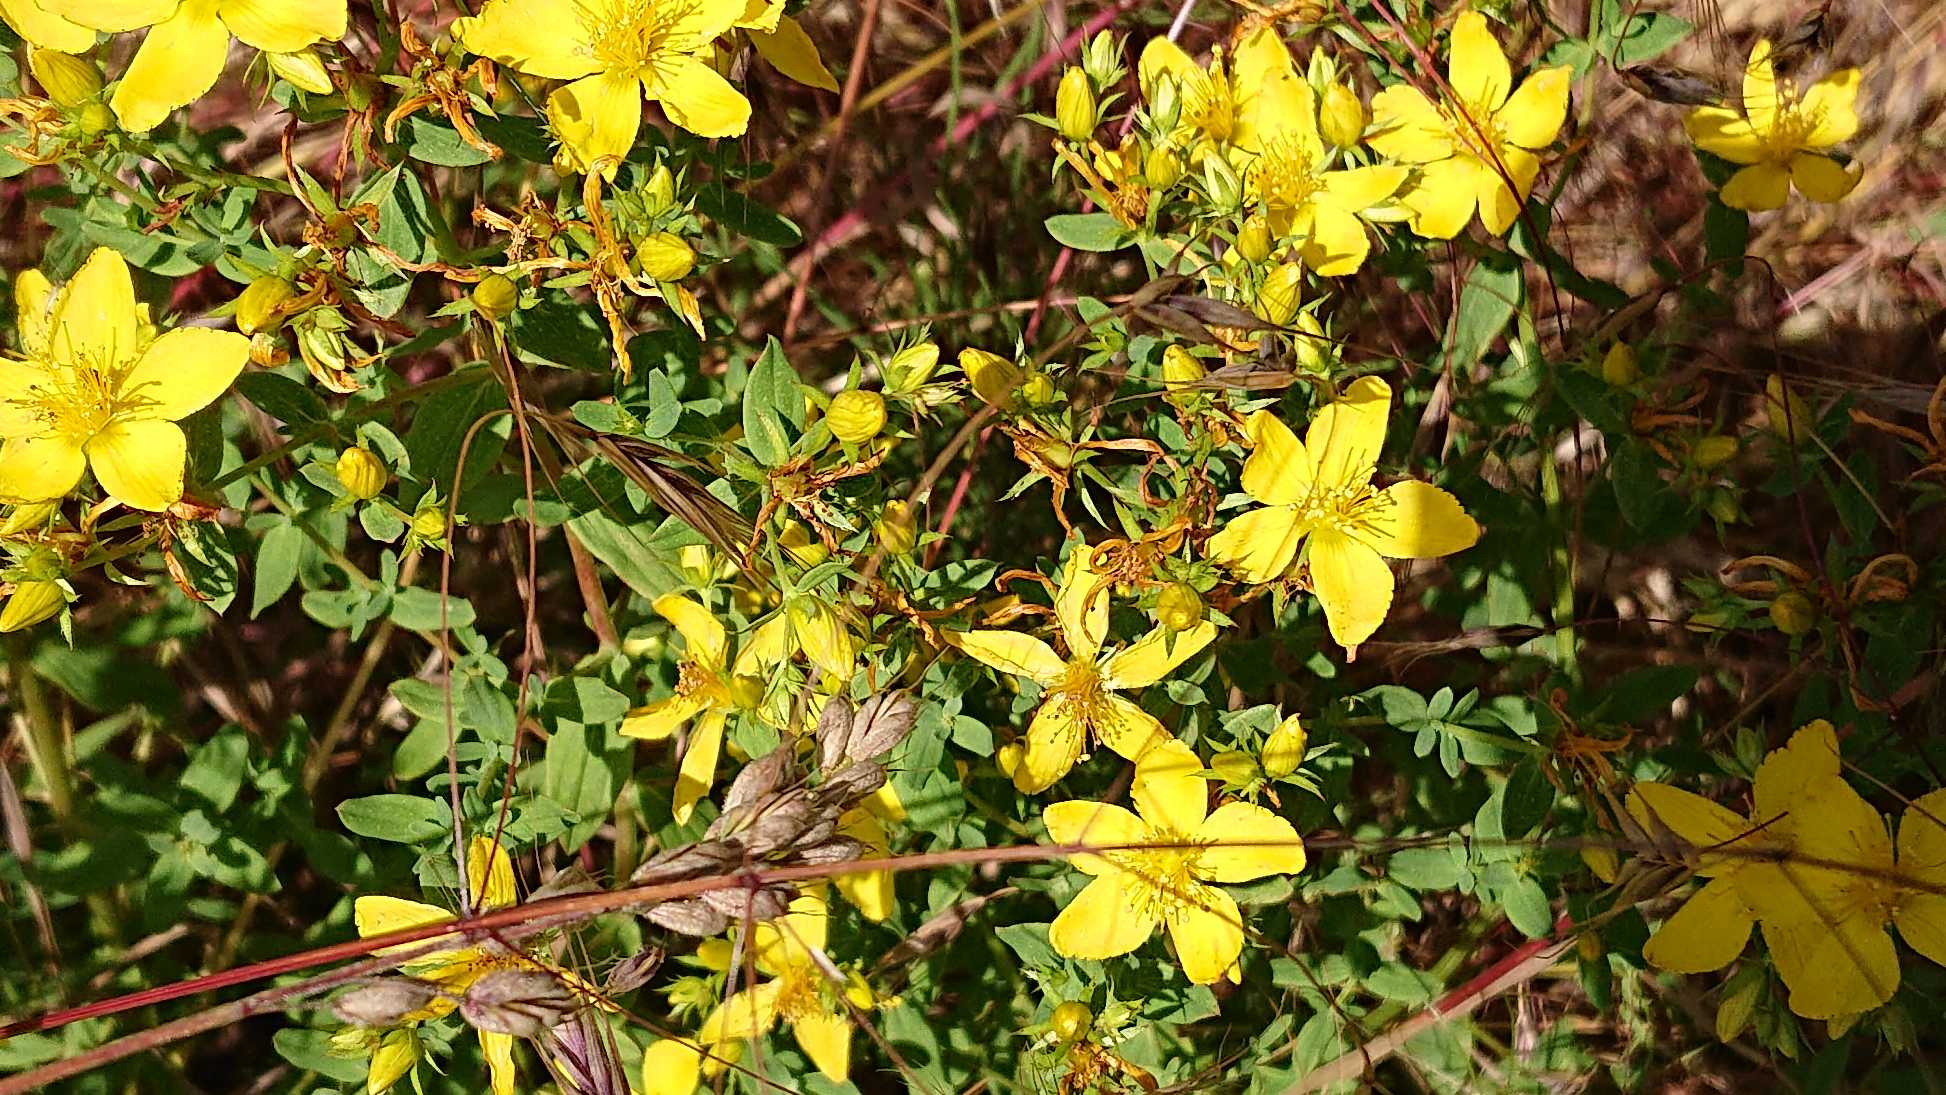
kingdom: Plantae
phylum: Tracheophyta
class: Magnoliopsida
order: Malpighiales
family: Hypericaceae
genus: Hypericum
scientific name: Hypericum perforatum
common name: Prikbladet perikon
